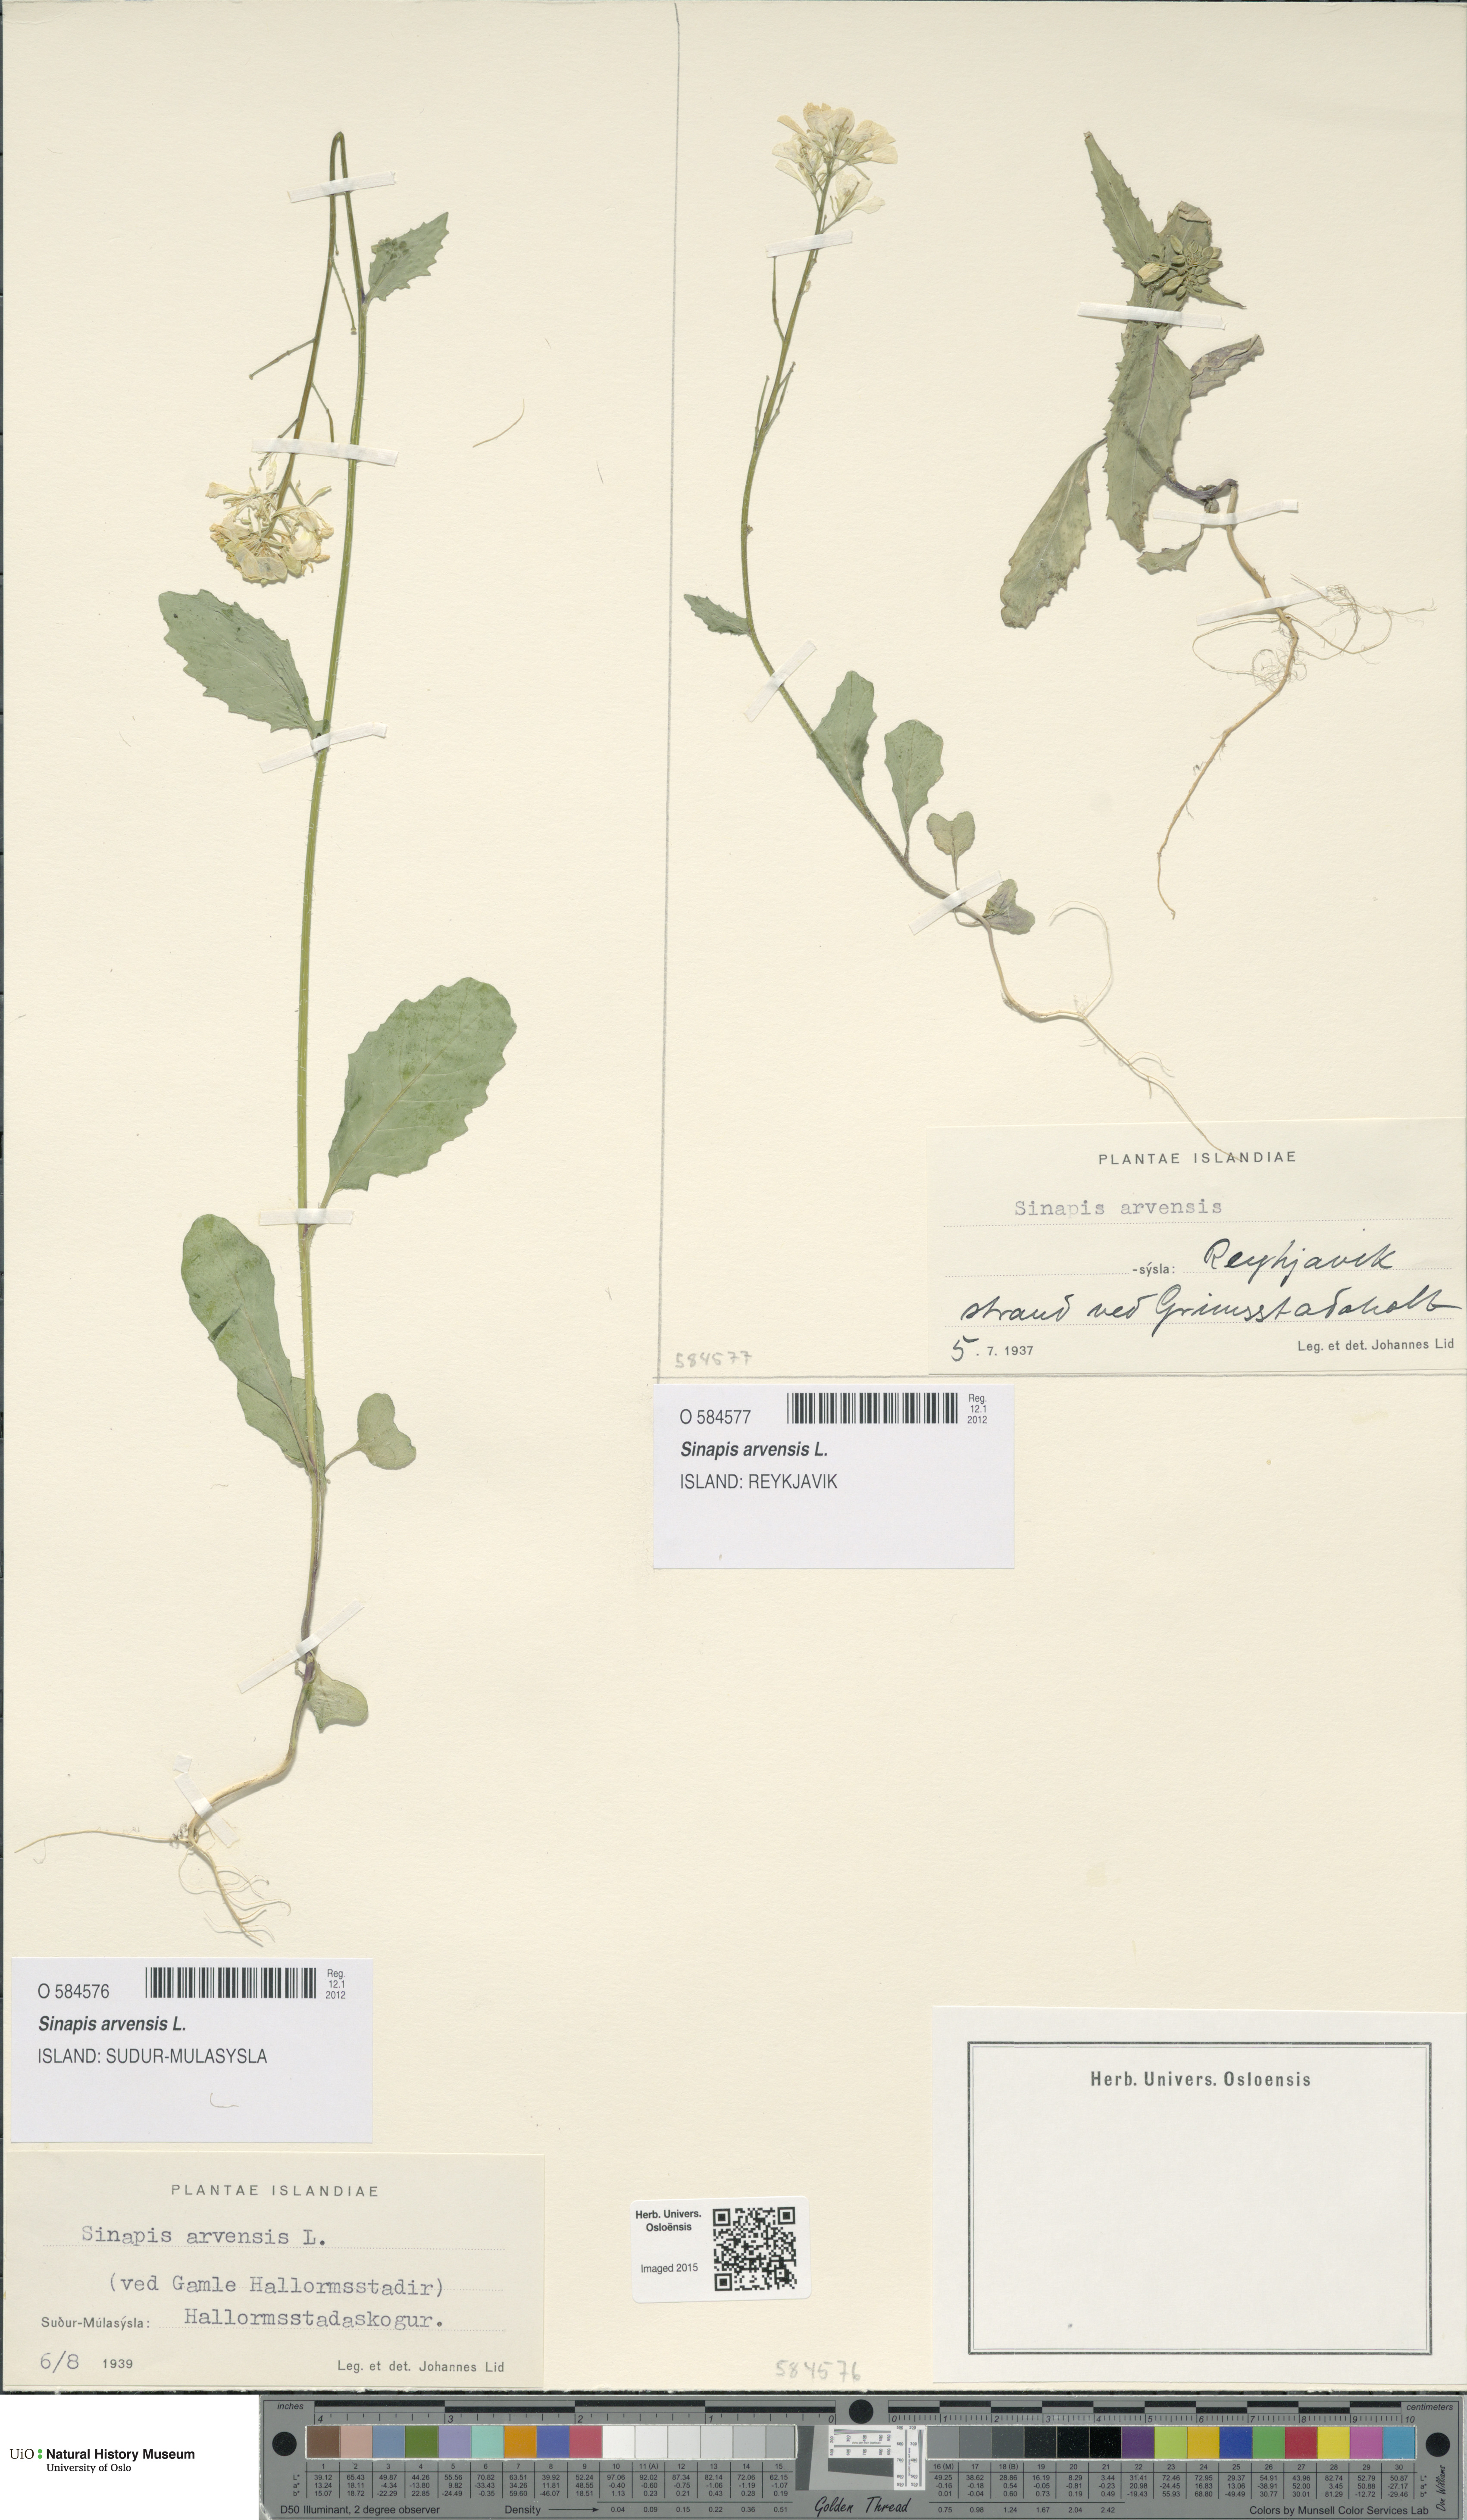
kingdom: Plantae
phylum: Tracheophyta
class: Magnoliopsida
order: Brassicales
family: Brassicaceae
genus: Sinapis
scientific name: Sinapis arvensis
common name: Charlock
